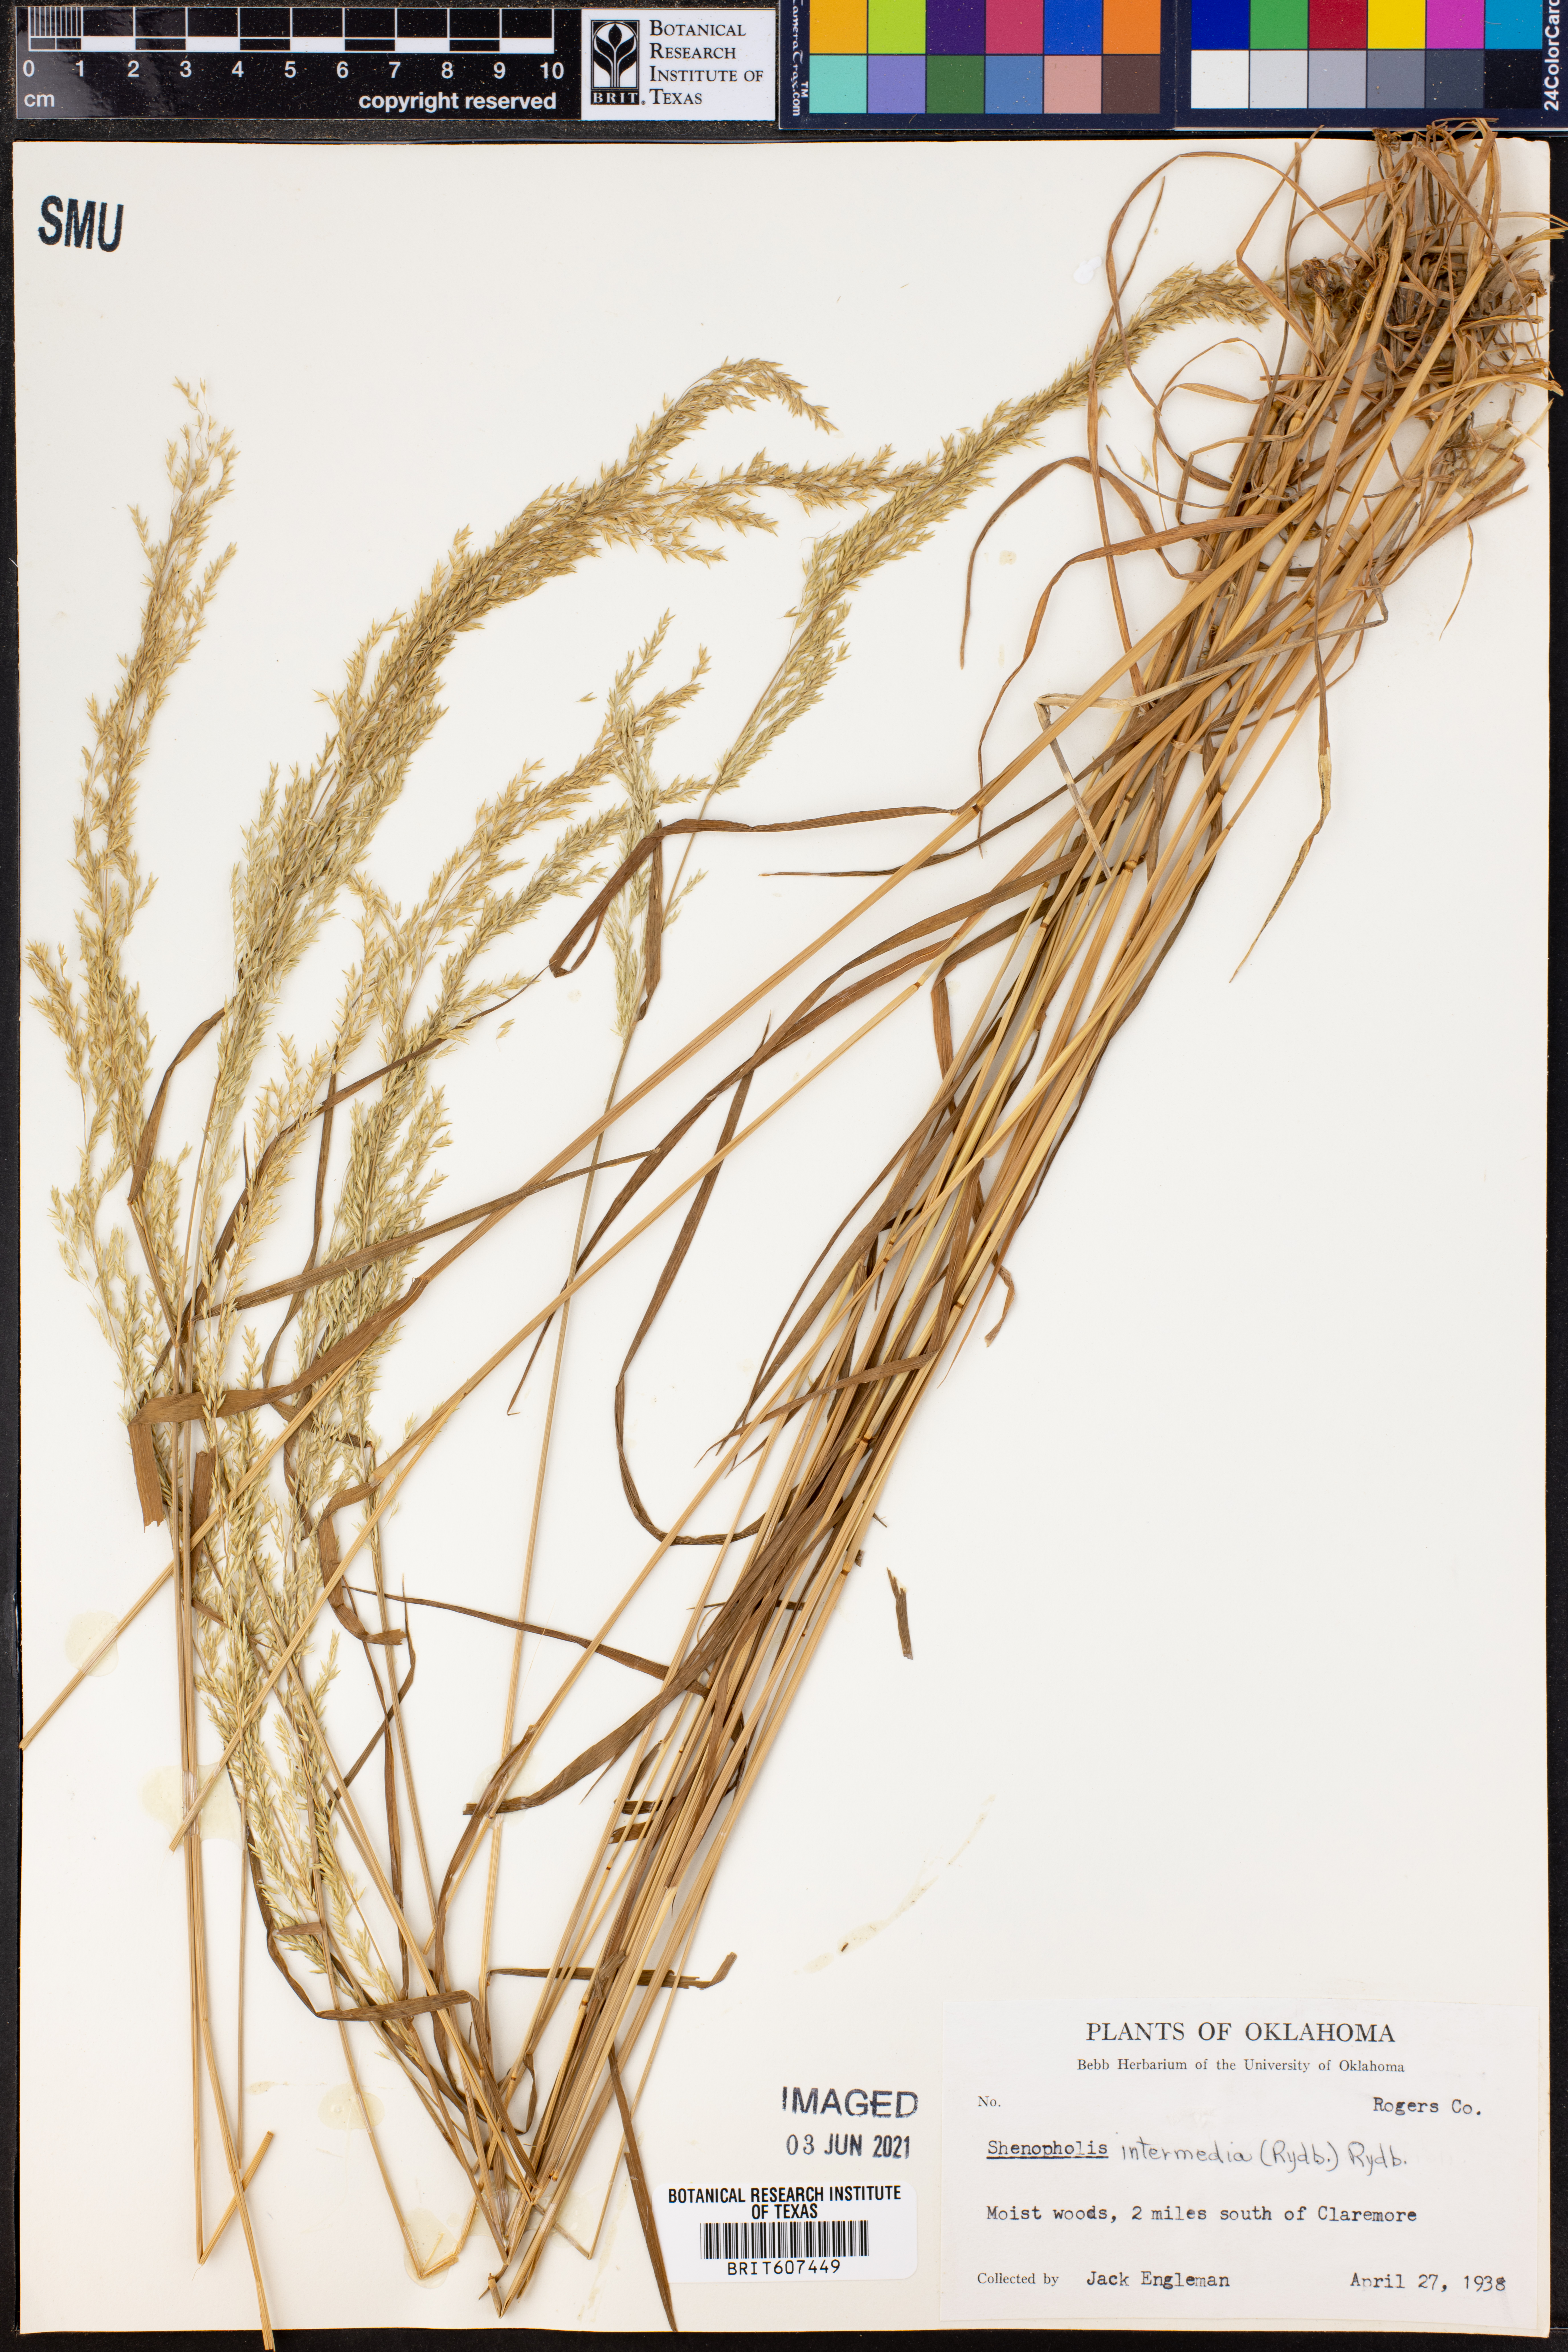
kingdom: Plantae
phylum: Tracheophyta
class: Liliopsida
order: Poales
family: Poaceae
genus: Sphenopholis
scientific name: Sphenopholis intermedia
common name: Intermediate eaton's grass
